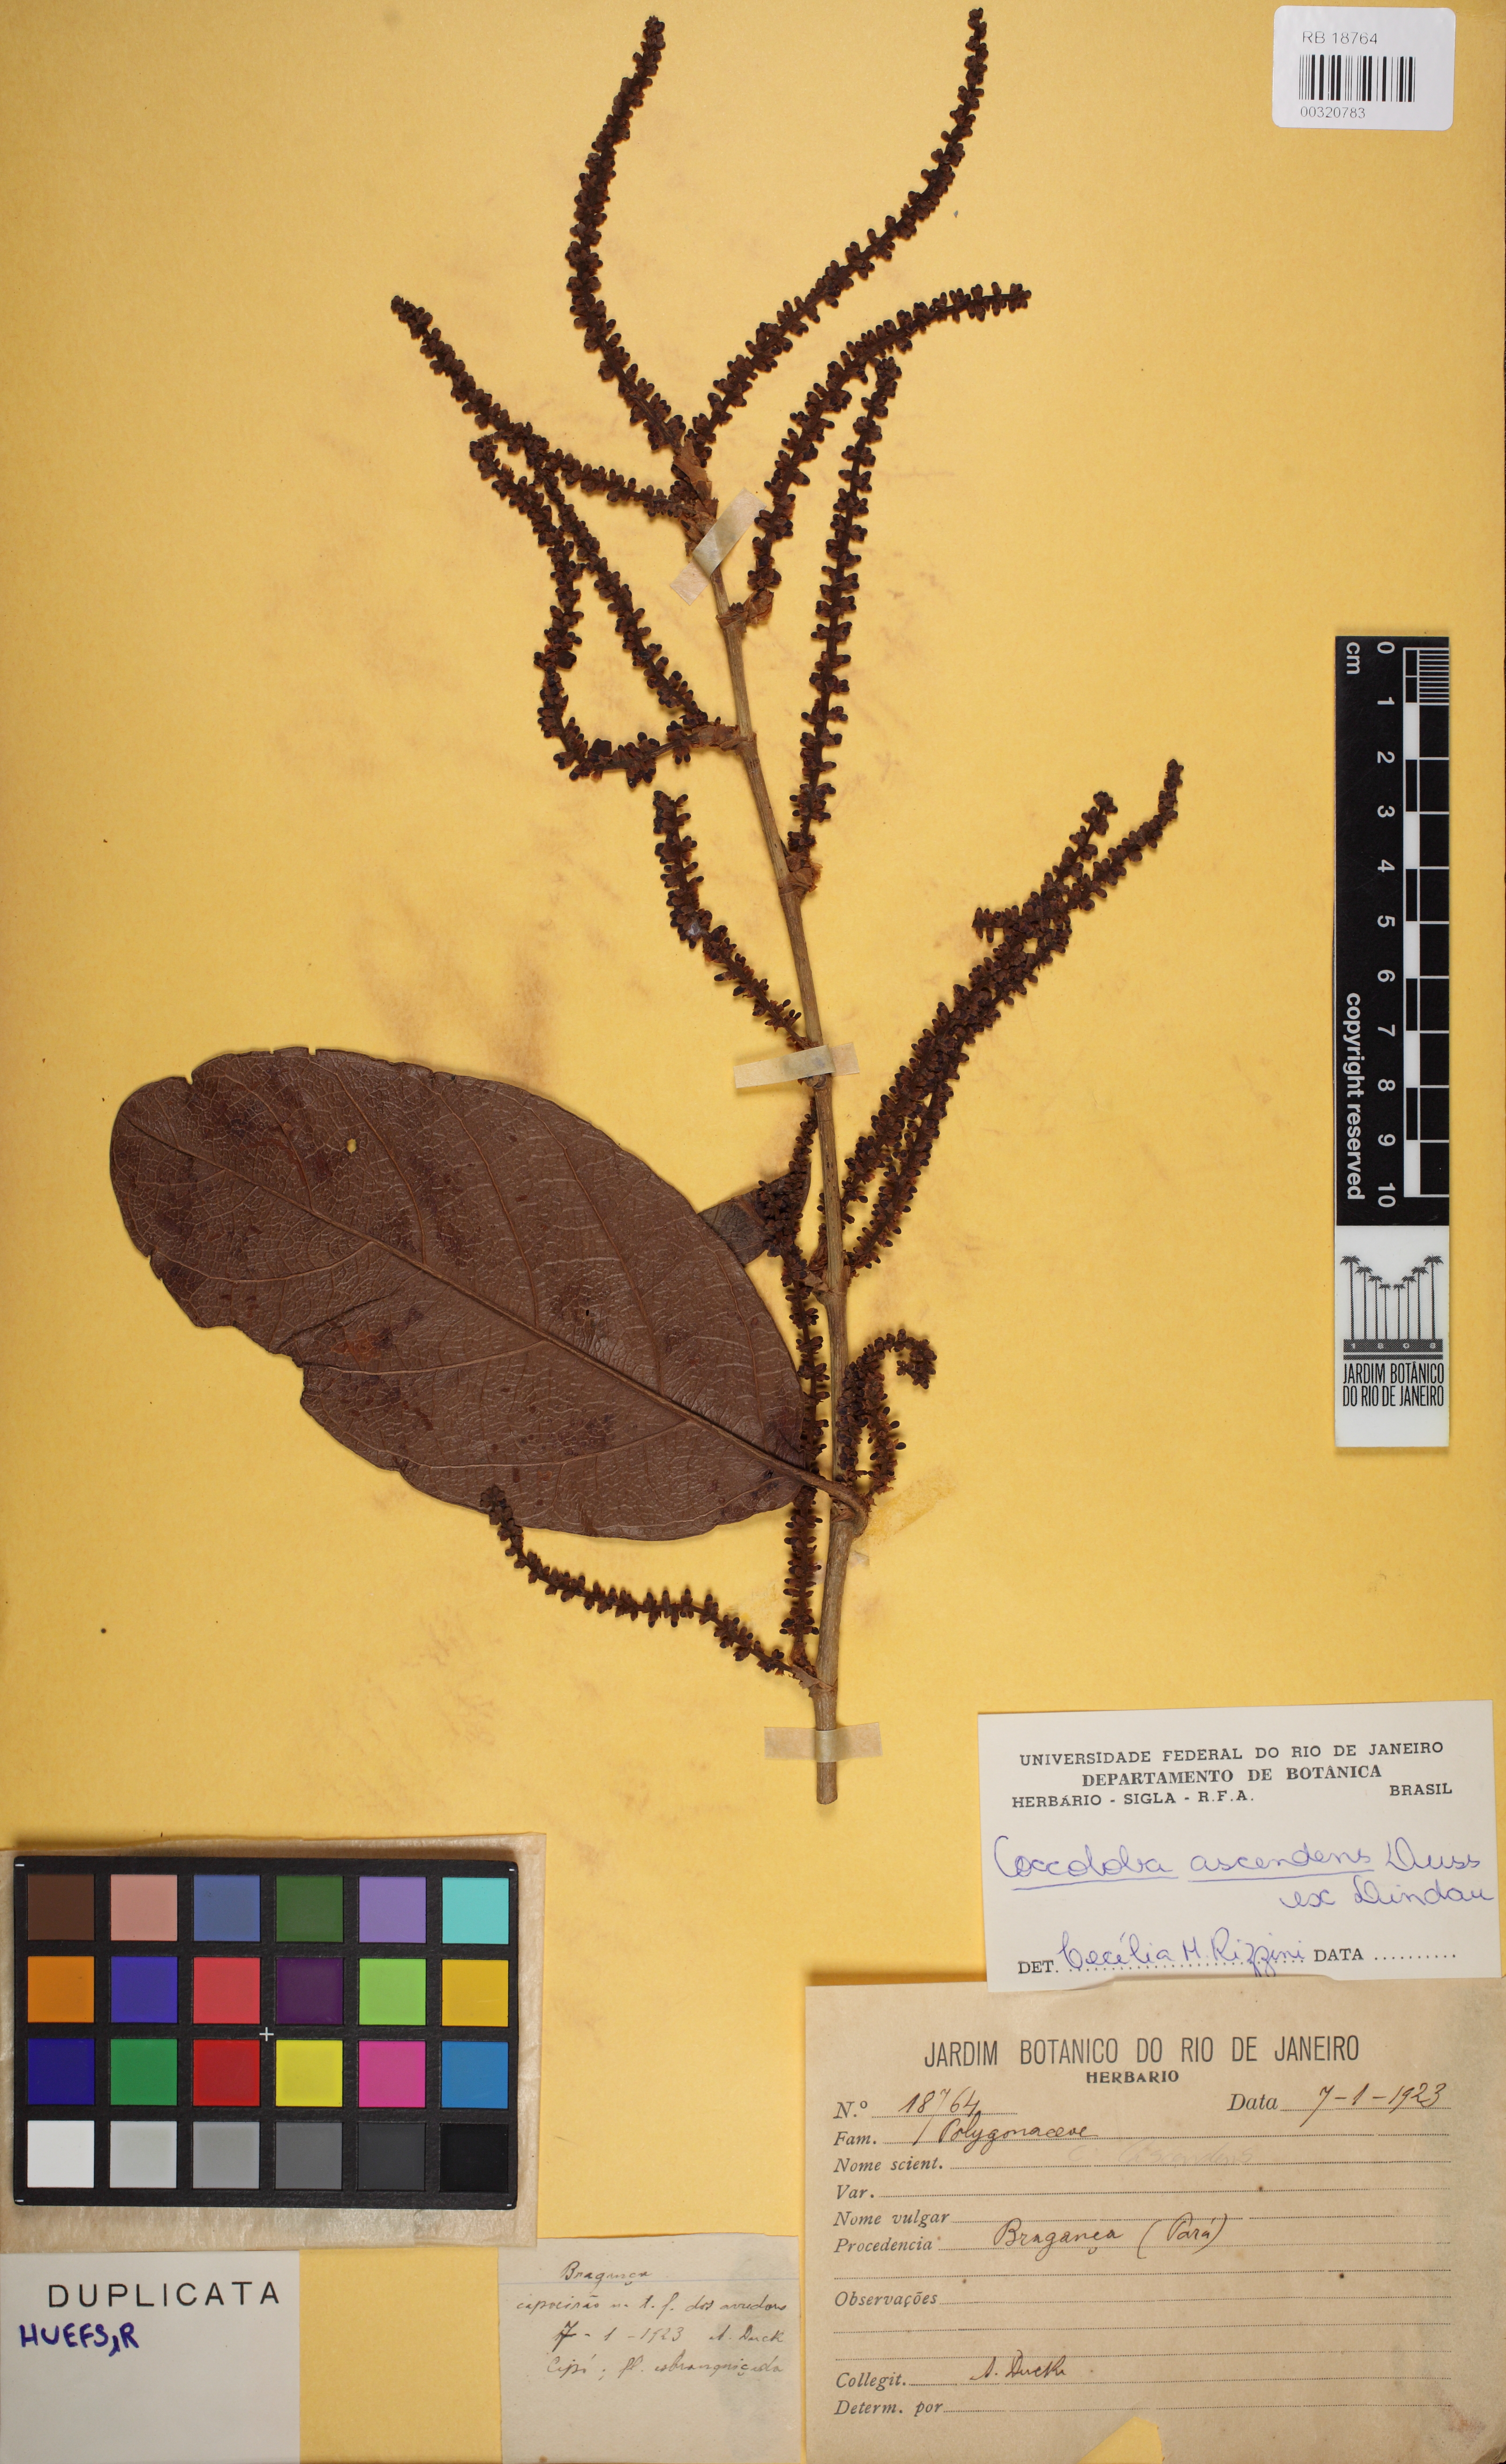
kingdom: Plantae
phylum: Tracheophyta
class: Magnoliopsida
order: Caryophyllales
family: Polygonaceae
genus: Coccoloba
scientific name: Coccoloba ascendens
